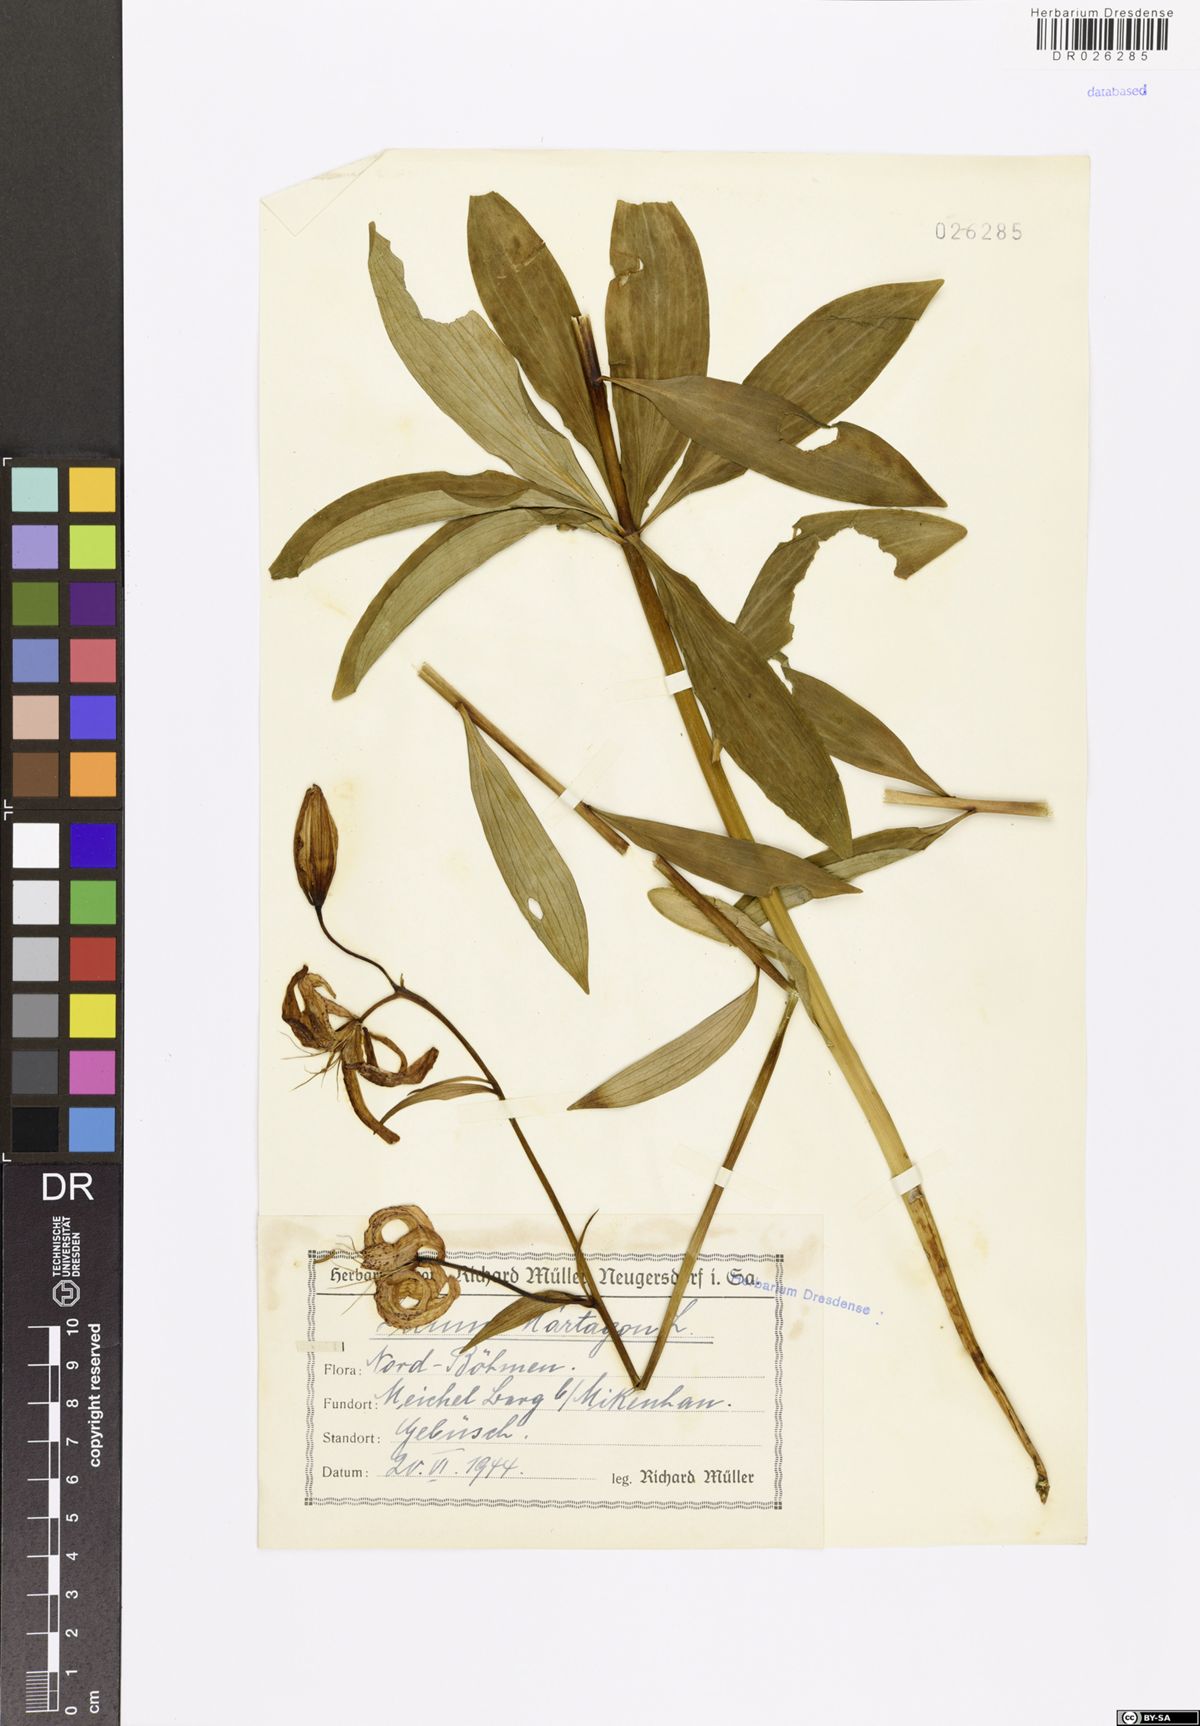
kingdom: Plantae
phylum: Tracheophyta
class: Liliopsida
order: Liliales
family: Liliaceae
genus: Lilium
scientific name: Lilium martagon
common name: Martagon lily
